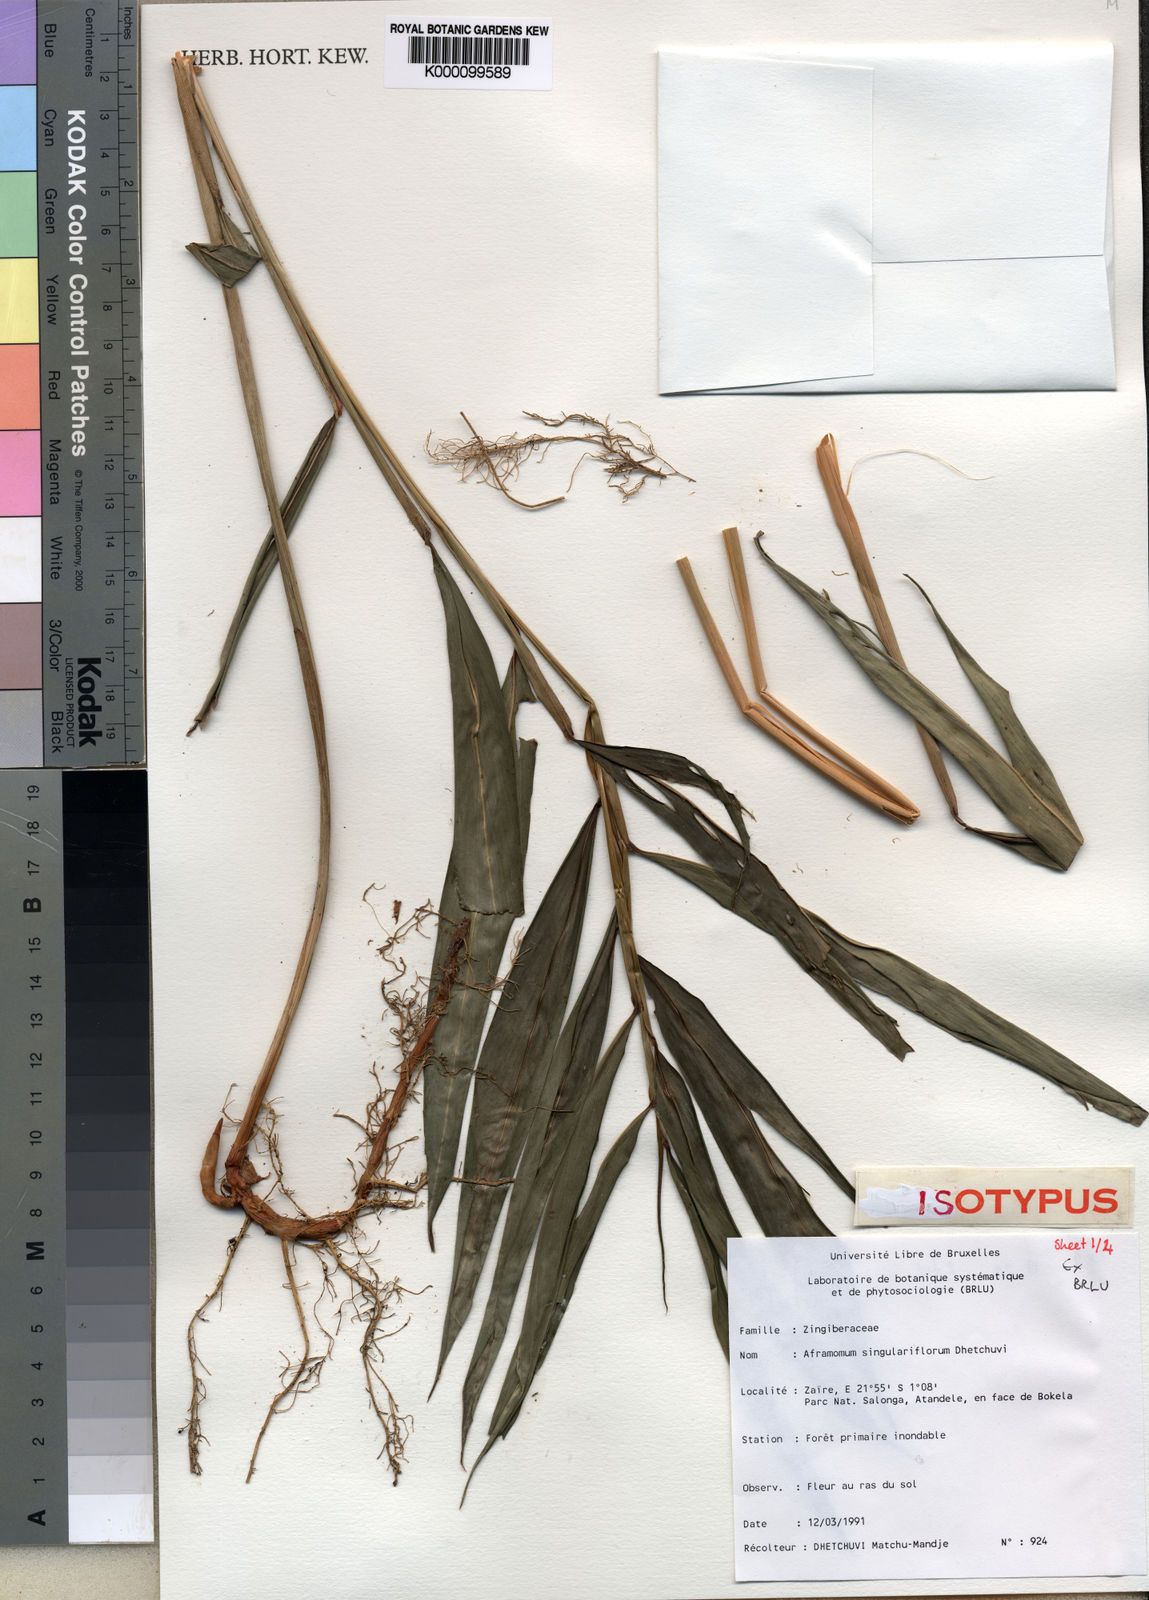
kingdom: Plantae
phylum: Tracheophyta
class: Liliopsida
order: Zingiberales
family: Zingiberaceae
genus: Aframomum
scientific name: Aframomum singulariflorum
